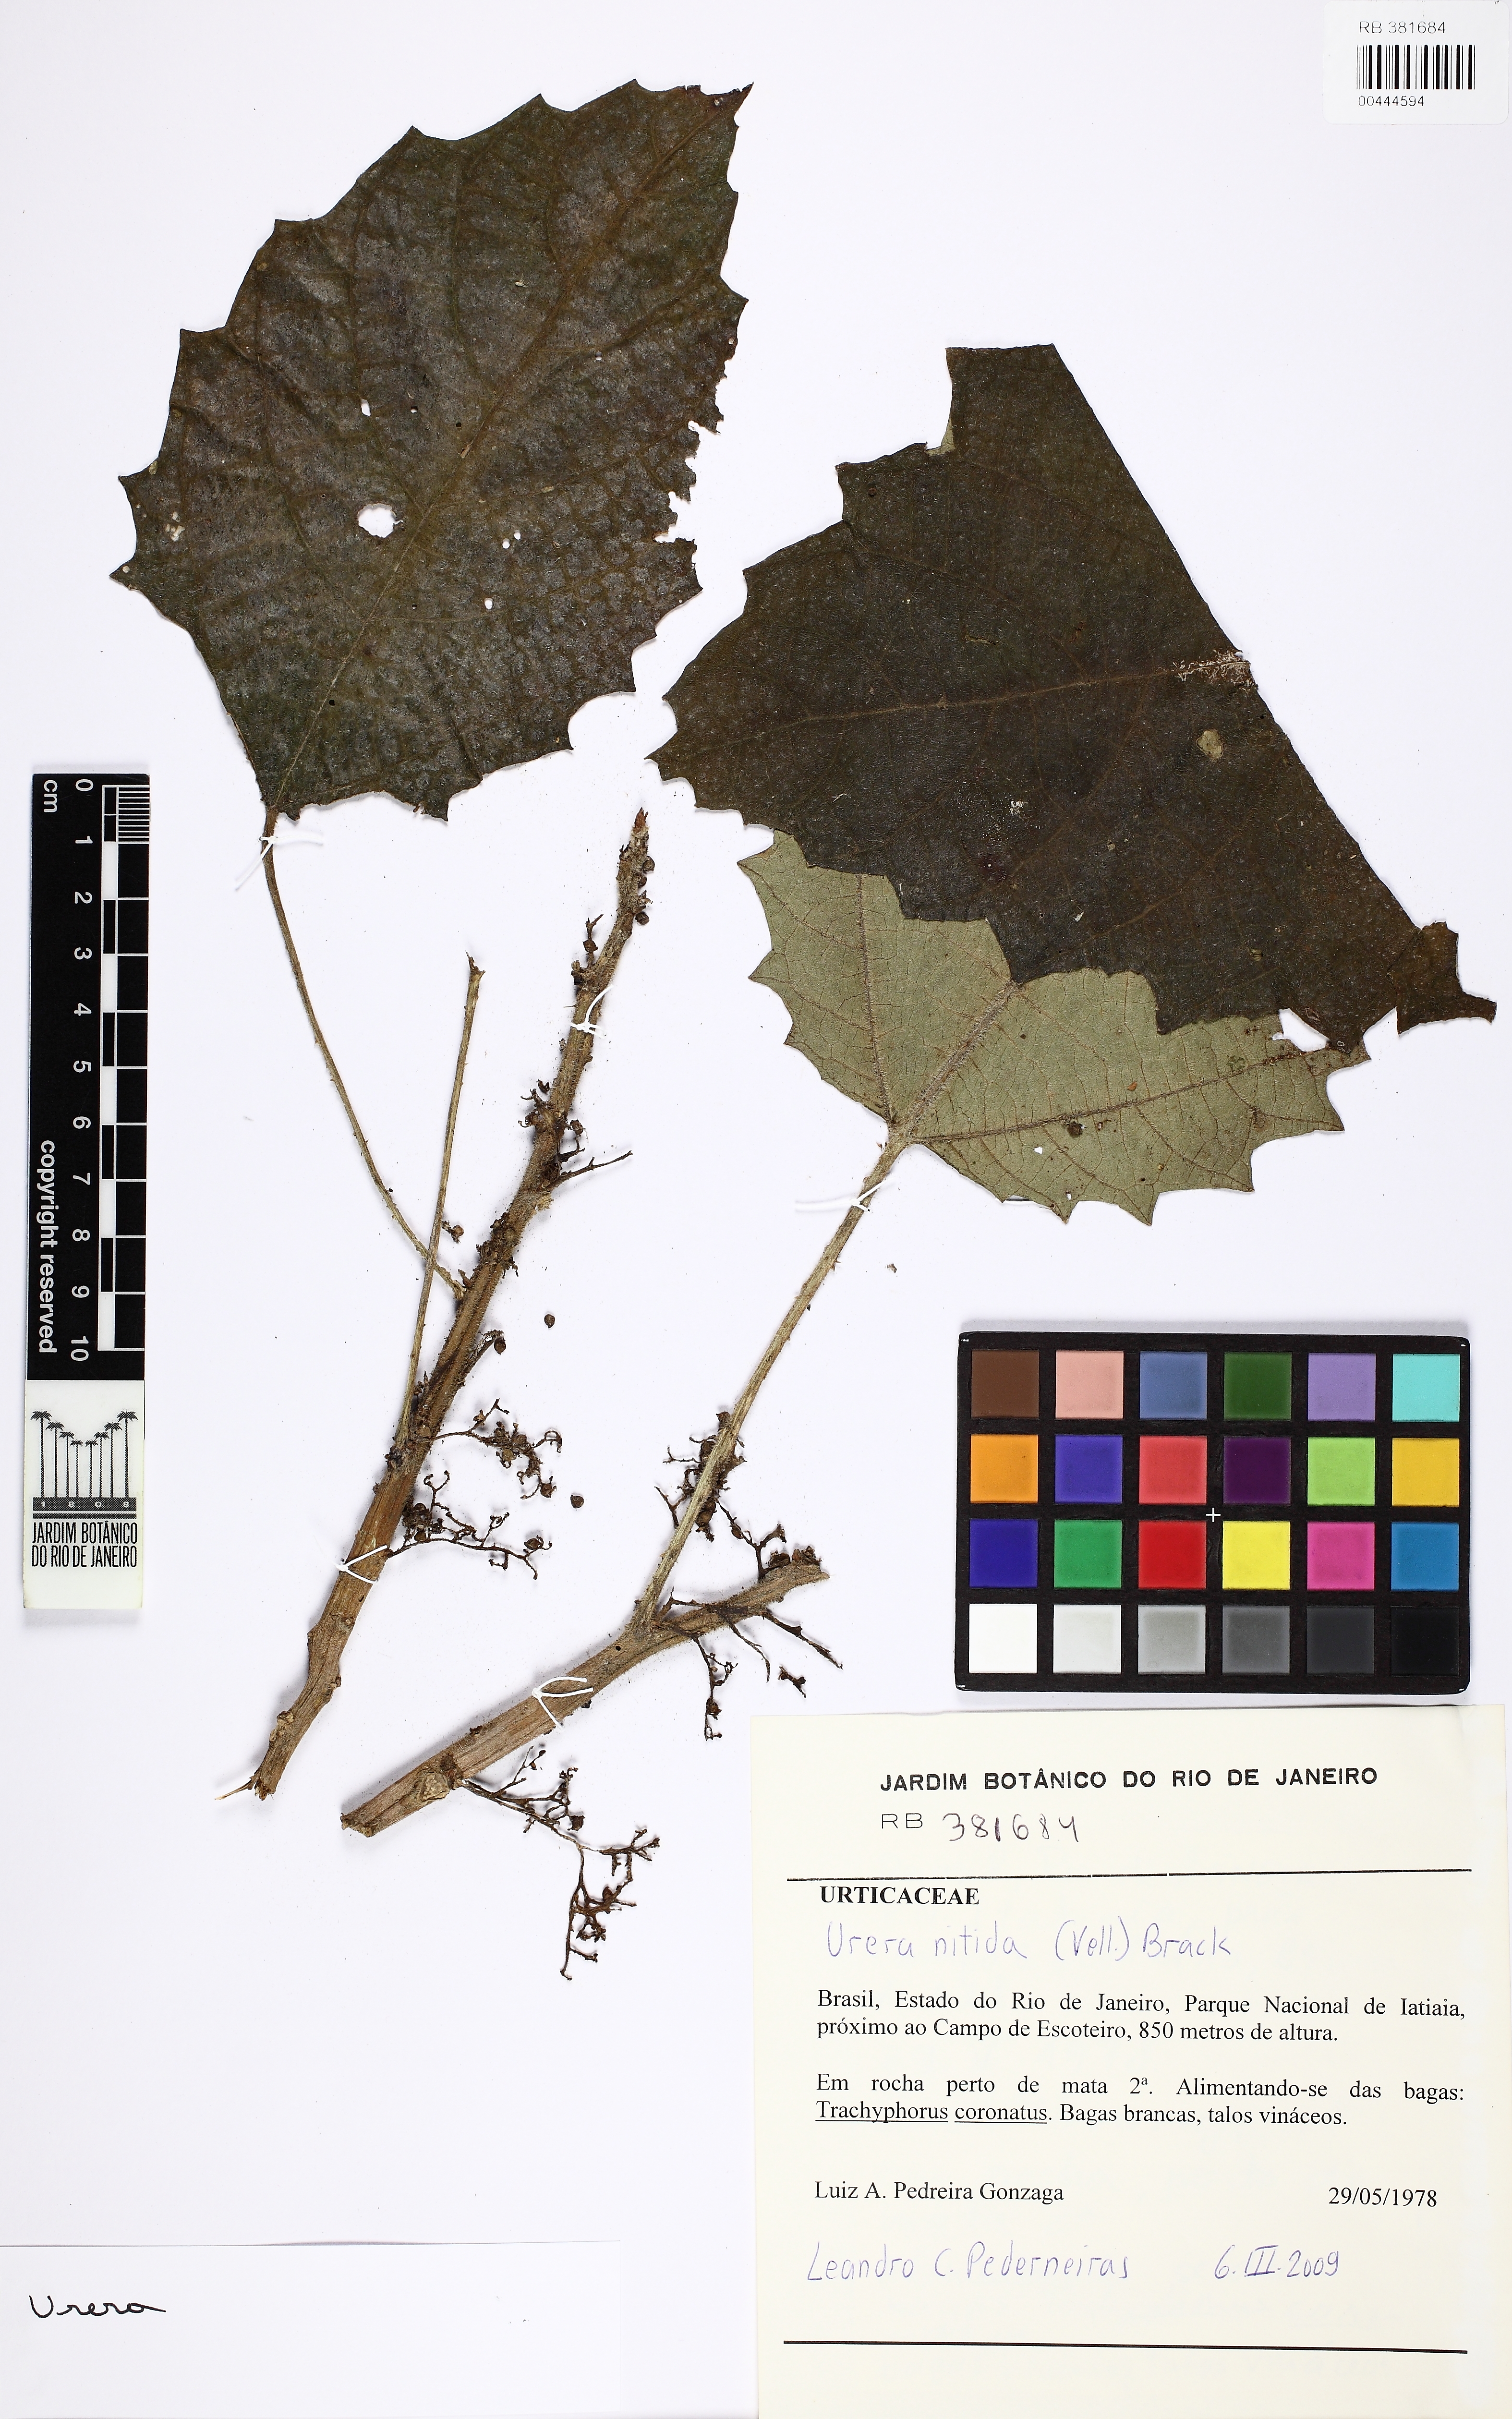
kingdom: Plantae
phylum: Tracheophyta
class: Magnoliopsida
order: Rosales
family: Urticaceae
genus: Urera
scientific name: Urera baccifera
